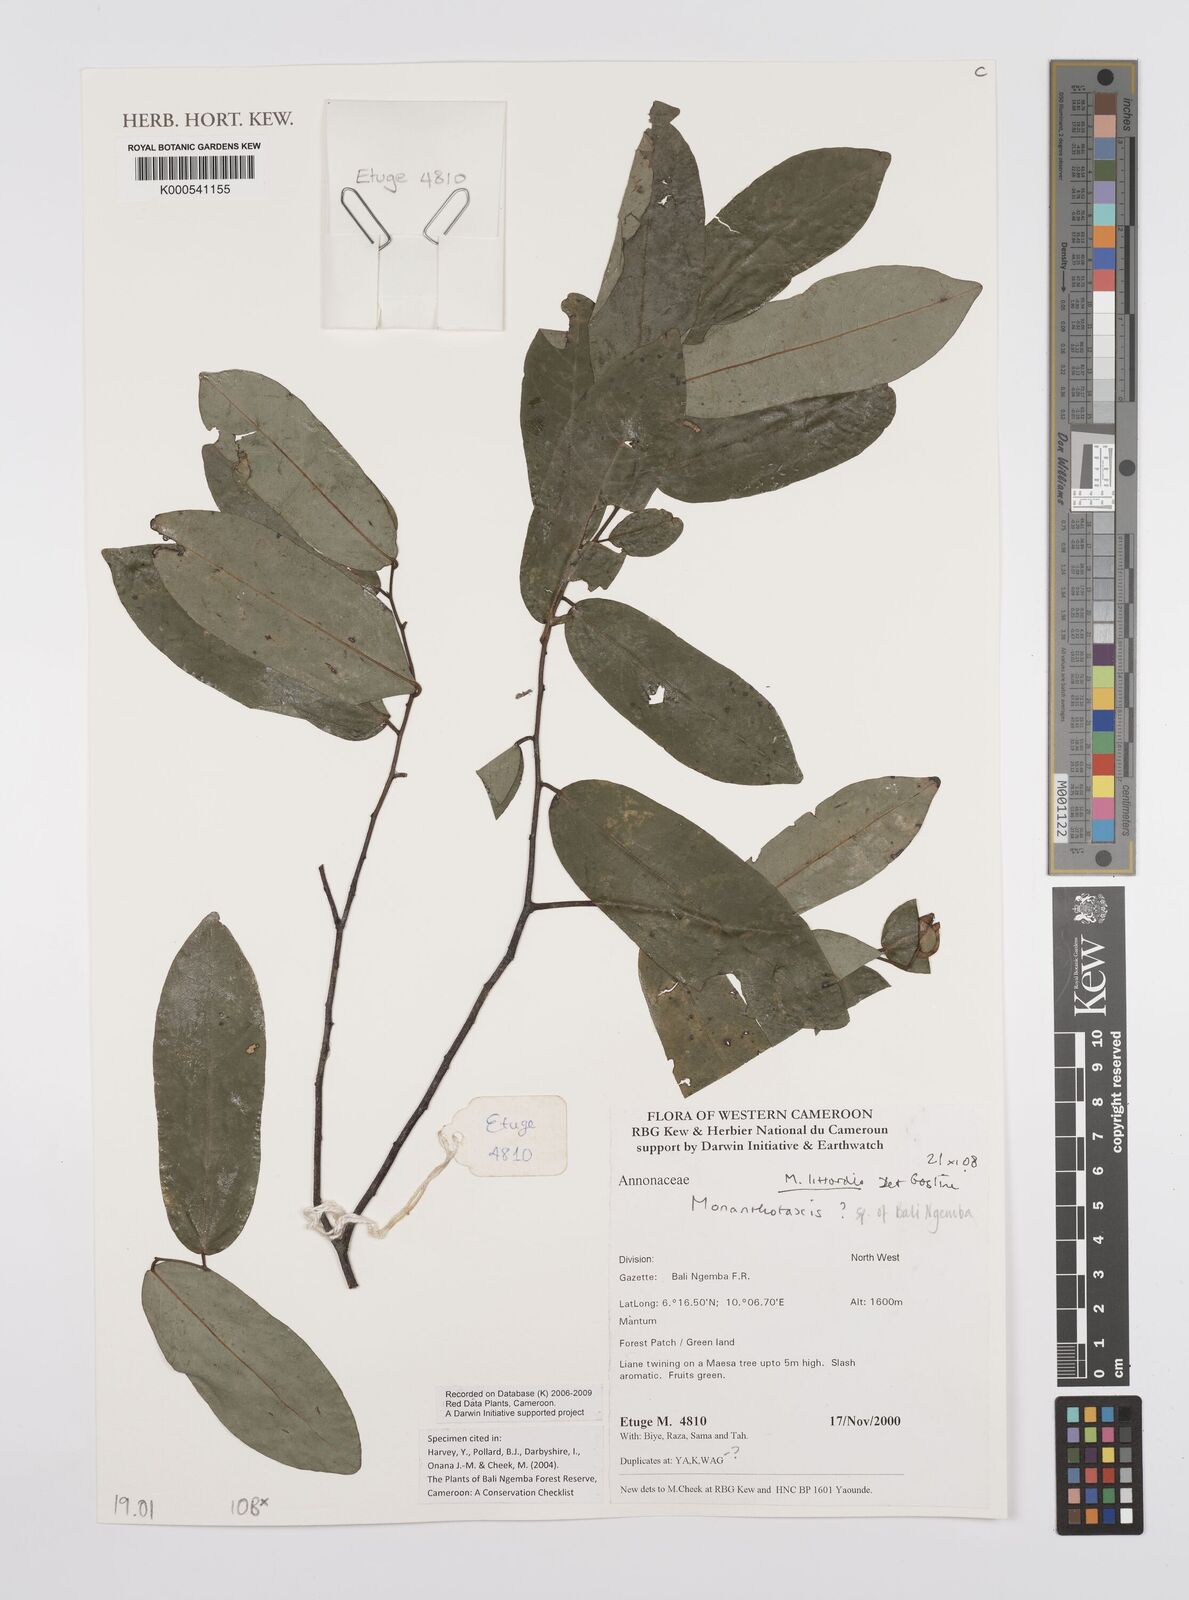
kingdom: Plantae
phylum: Tracheophyta
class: Magnoliopsida
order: Magnoliales
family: Annonaceae
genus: Monanthotaxis
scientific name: Monanthotaxis littoralis
